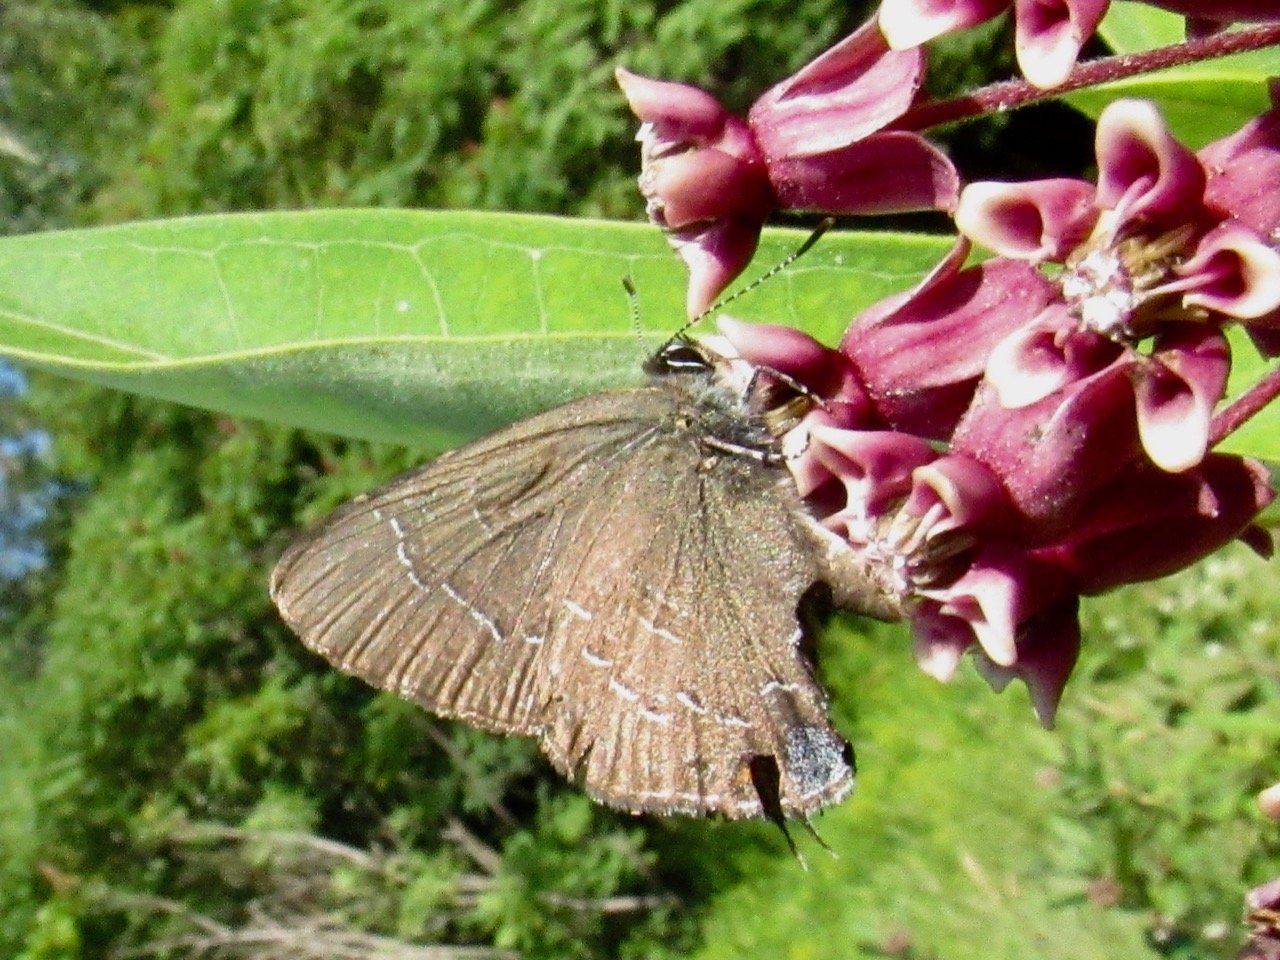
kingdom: Animalia
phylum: Arthropoda
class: Insecta
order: Lepidoptera
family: Lycaenidae
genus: Satyrium
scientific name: Satyrium calanus
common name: Banded Hairstreak
